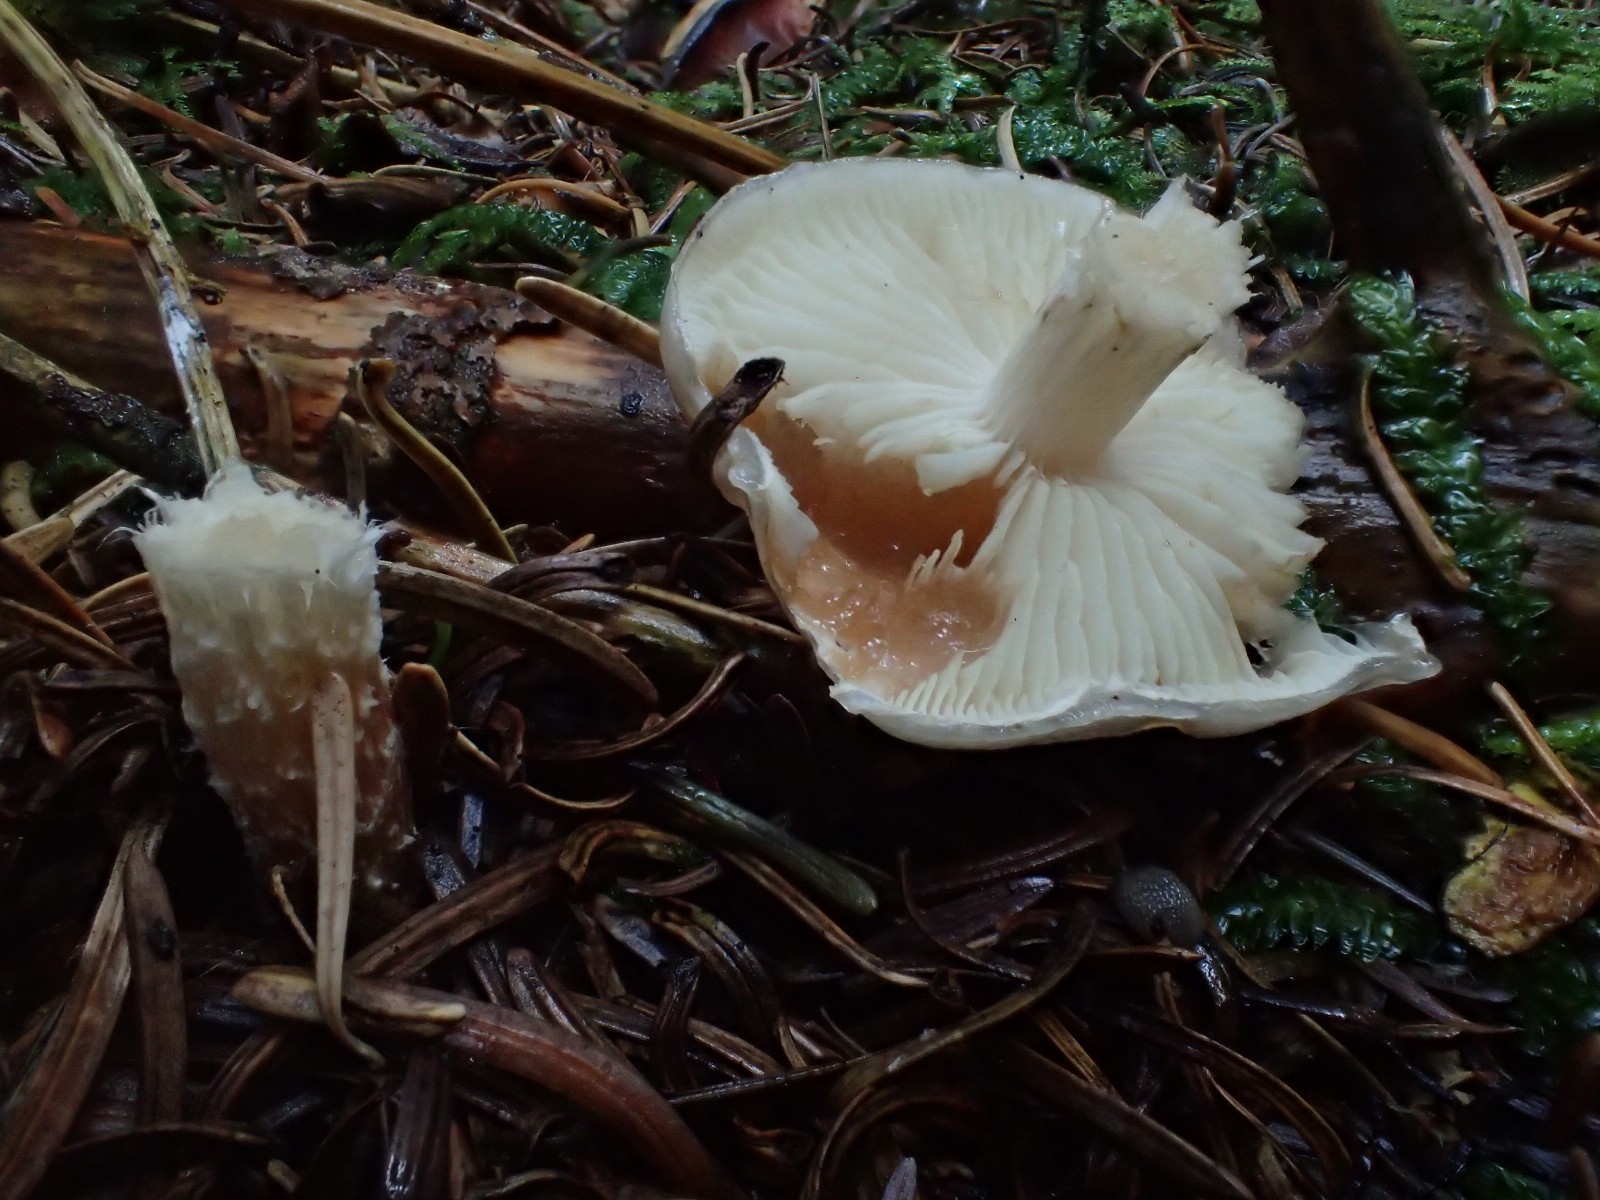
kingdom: Fungi
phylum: Basidiomycota
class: Agaricomycetes
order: Agaricales
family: Strophariaceae
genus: Pholiota
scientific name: Pholiota lenta
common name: løv-skælhat
